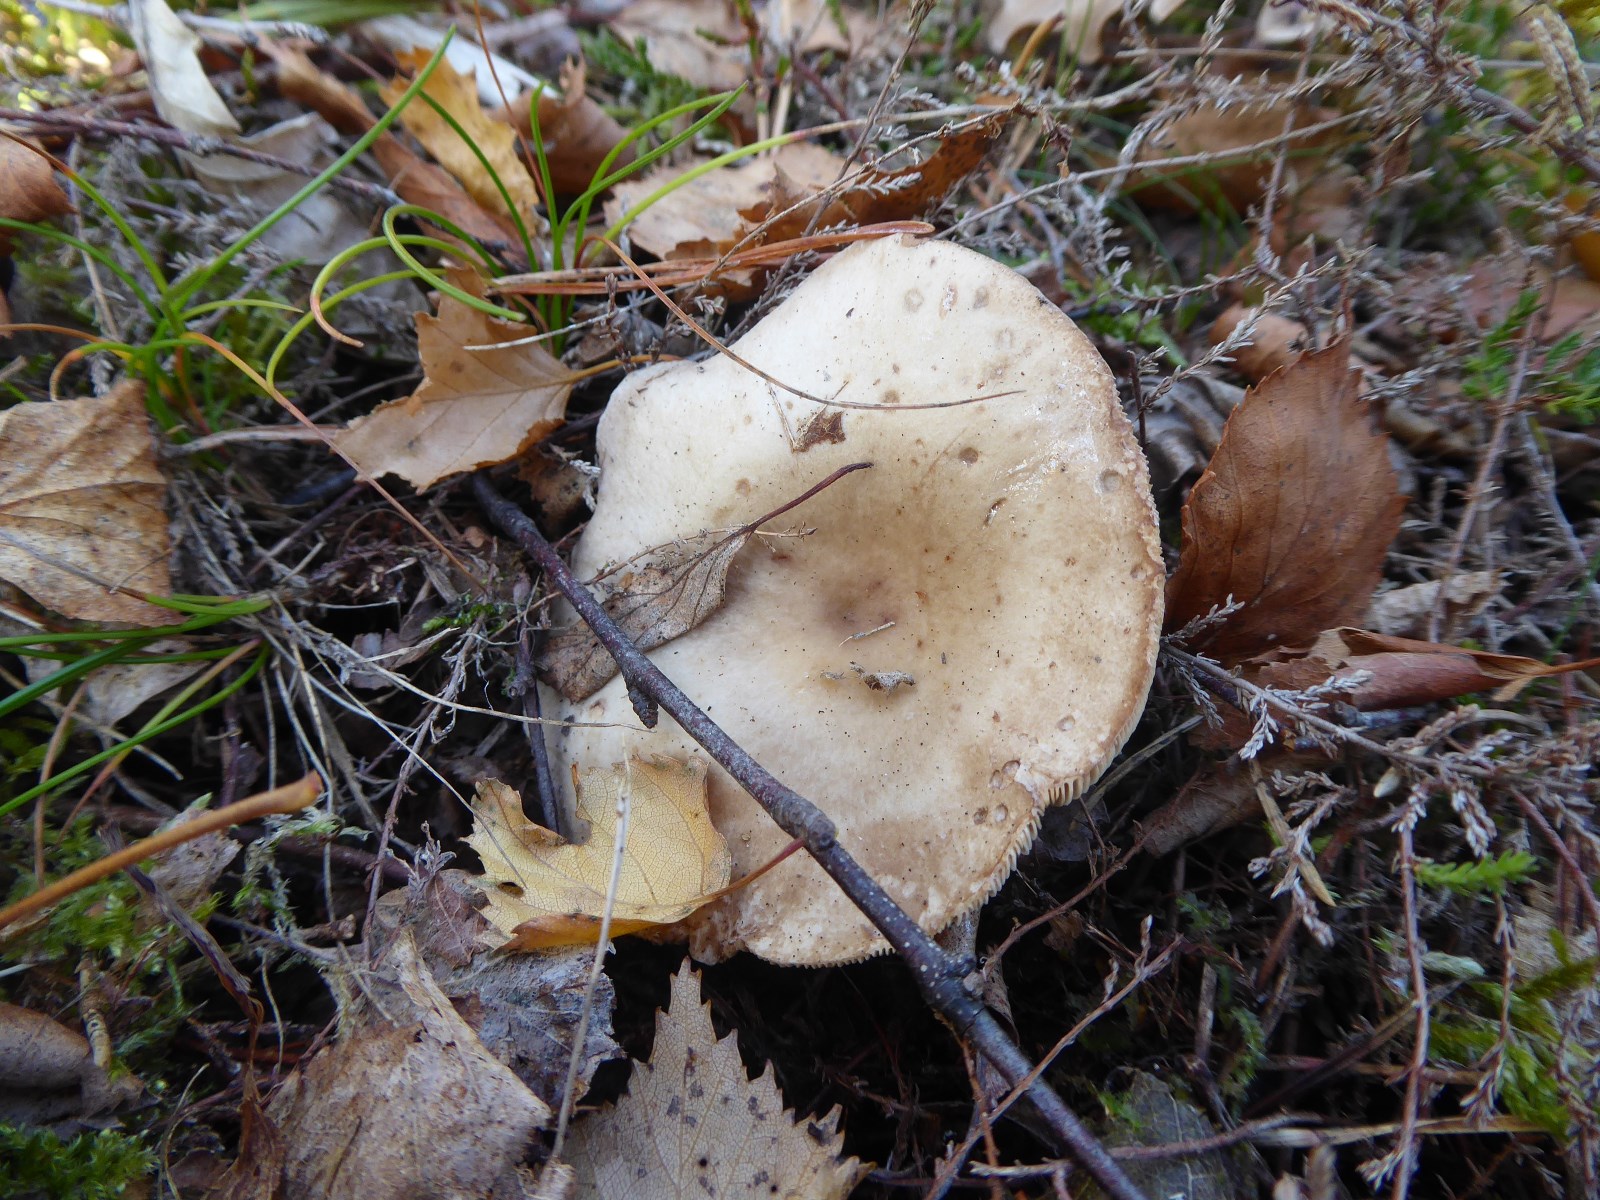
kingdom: Fungi
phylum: Basidiomycota
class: Agaricomycetes
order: Russulales
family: Russulaceae
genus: Lactarius
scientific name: Lactarius vietus
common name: violetgrå mælkehat
